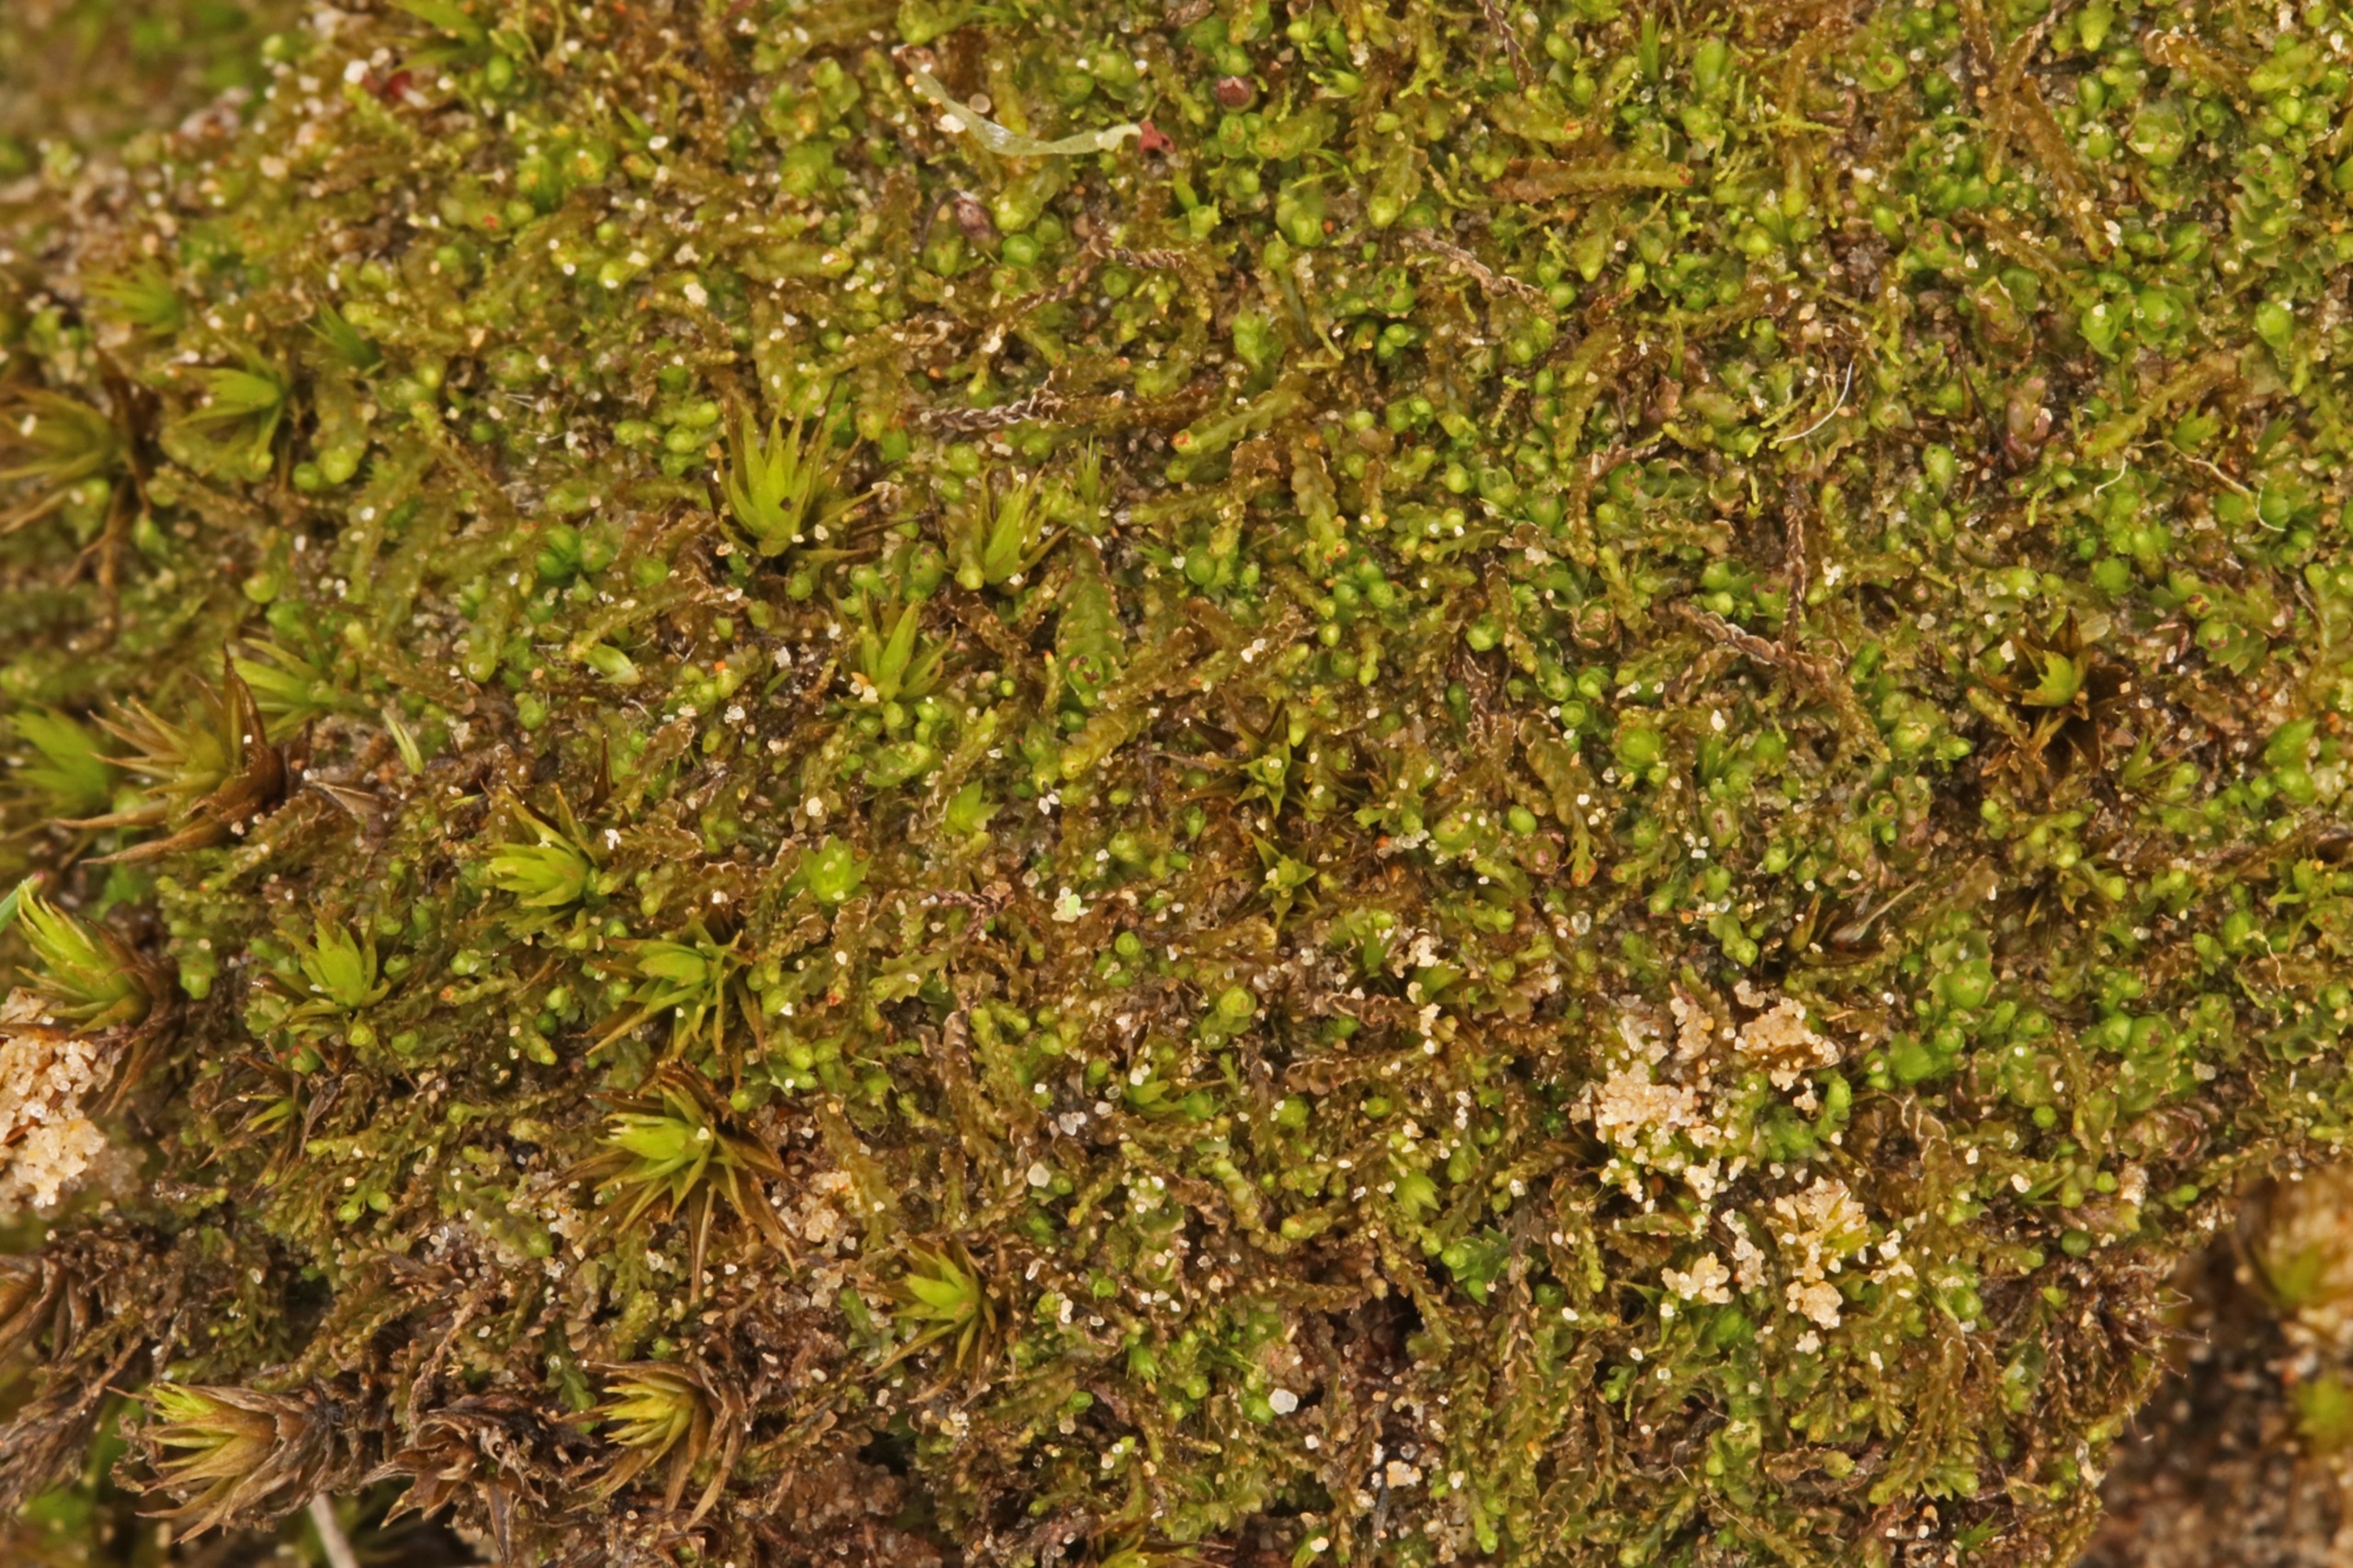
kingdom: Plantae
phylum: Marchantiophyta
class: Jungermanniopsida
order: Jungermanniales
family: Anastrophyllaceae
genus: Barbilophozia
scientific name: Barbilophozia hatcheri
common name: Spidsfliget flerfligmos
